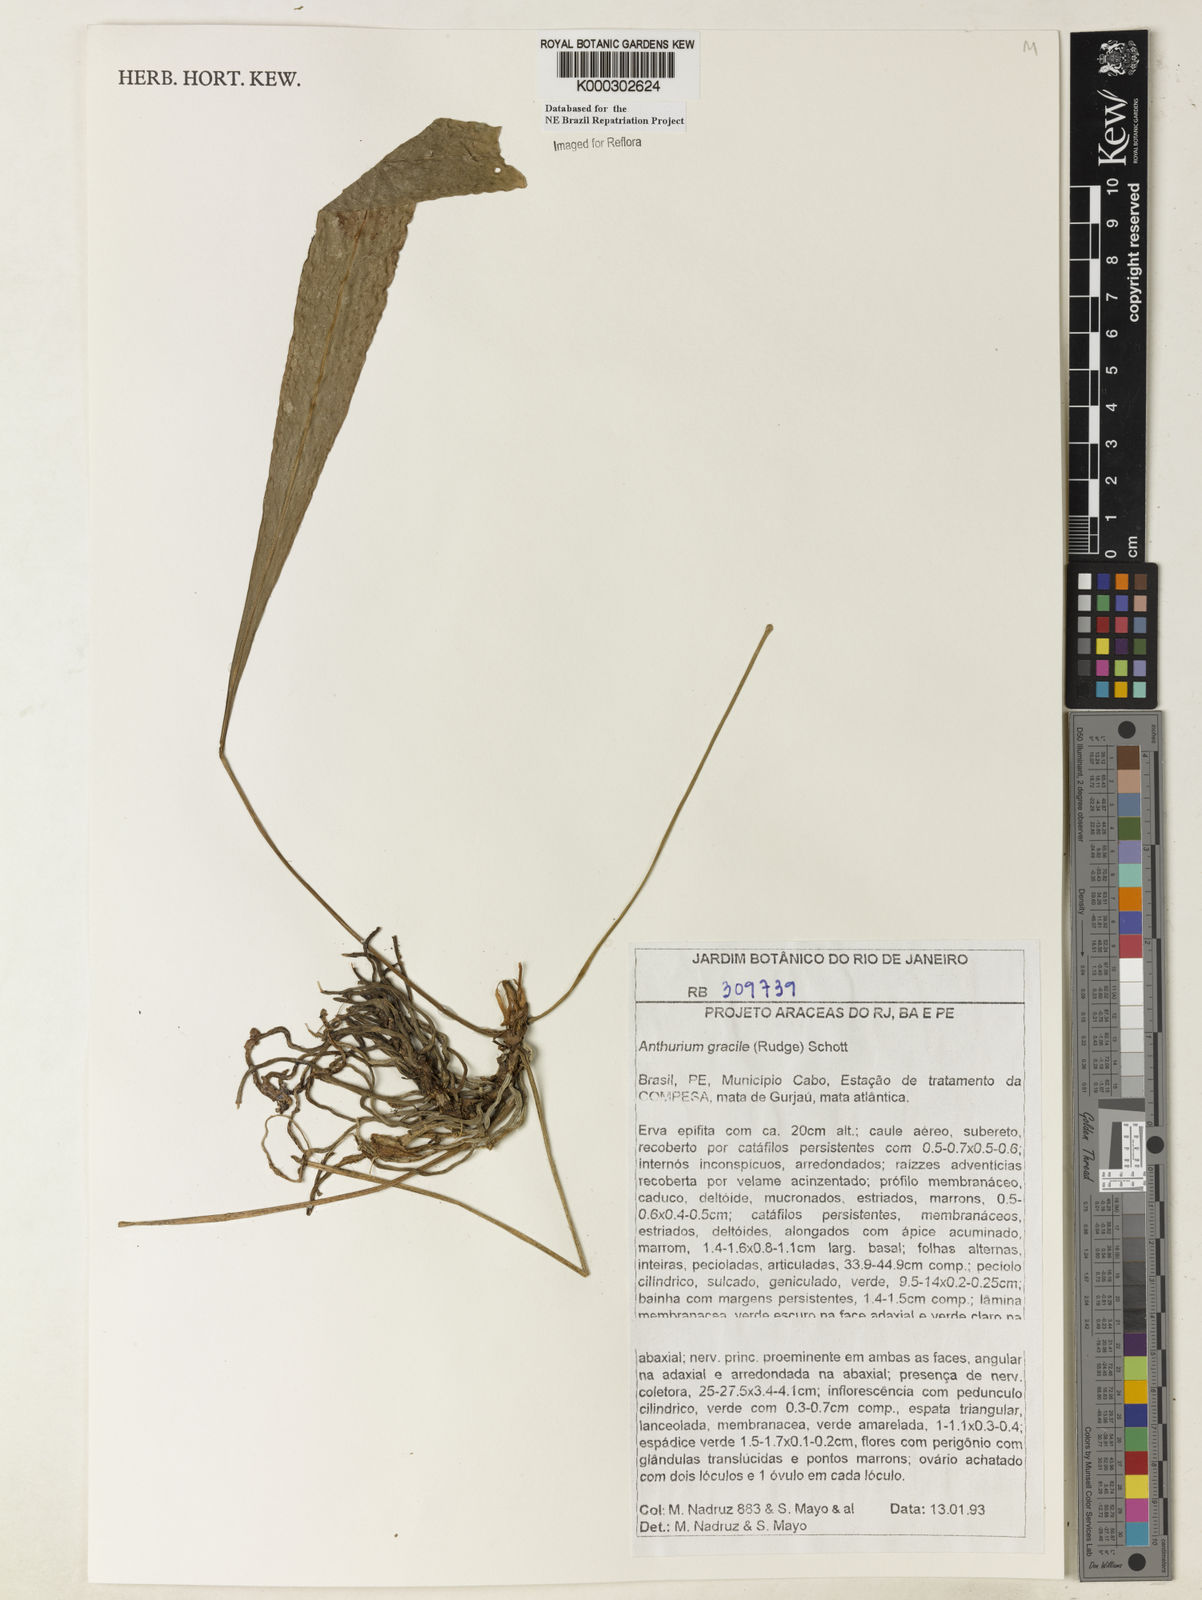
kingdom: Plantae
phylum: Tracheophyta
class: Liliopsida
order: Alismatales
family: Araceae
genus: Anthurium
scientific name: Anthurium
